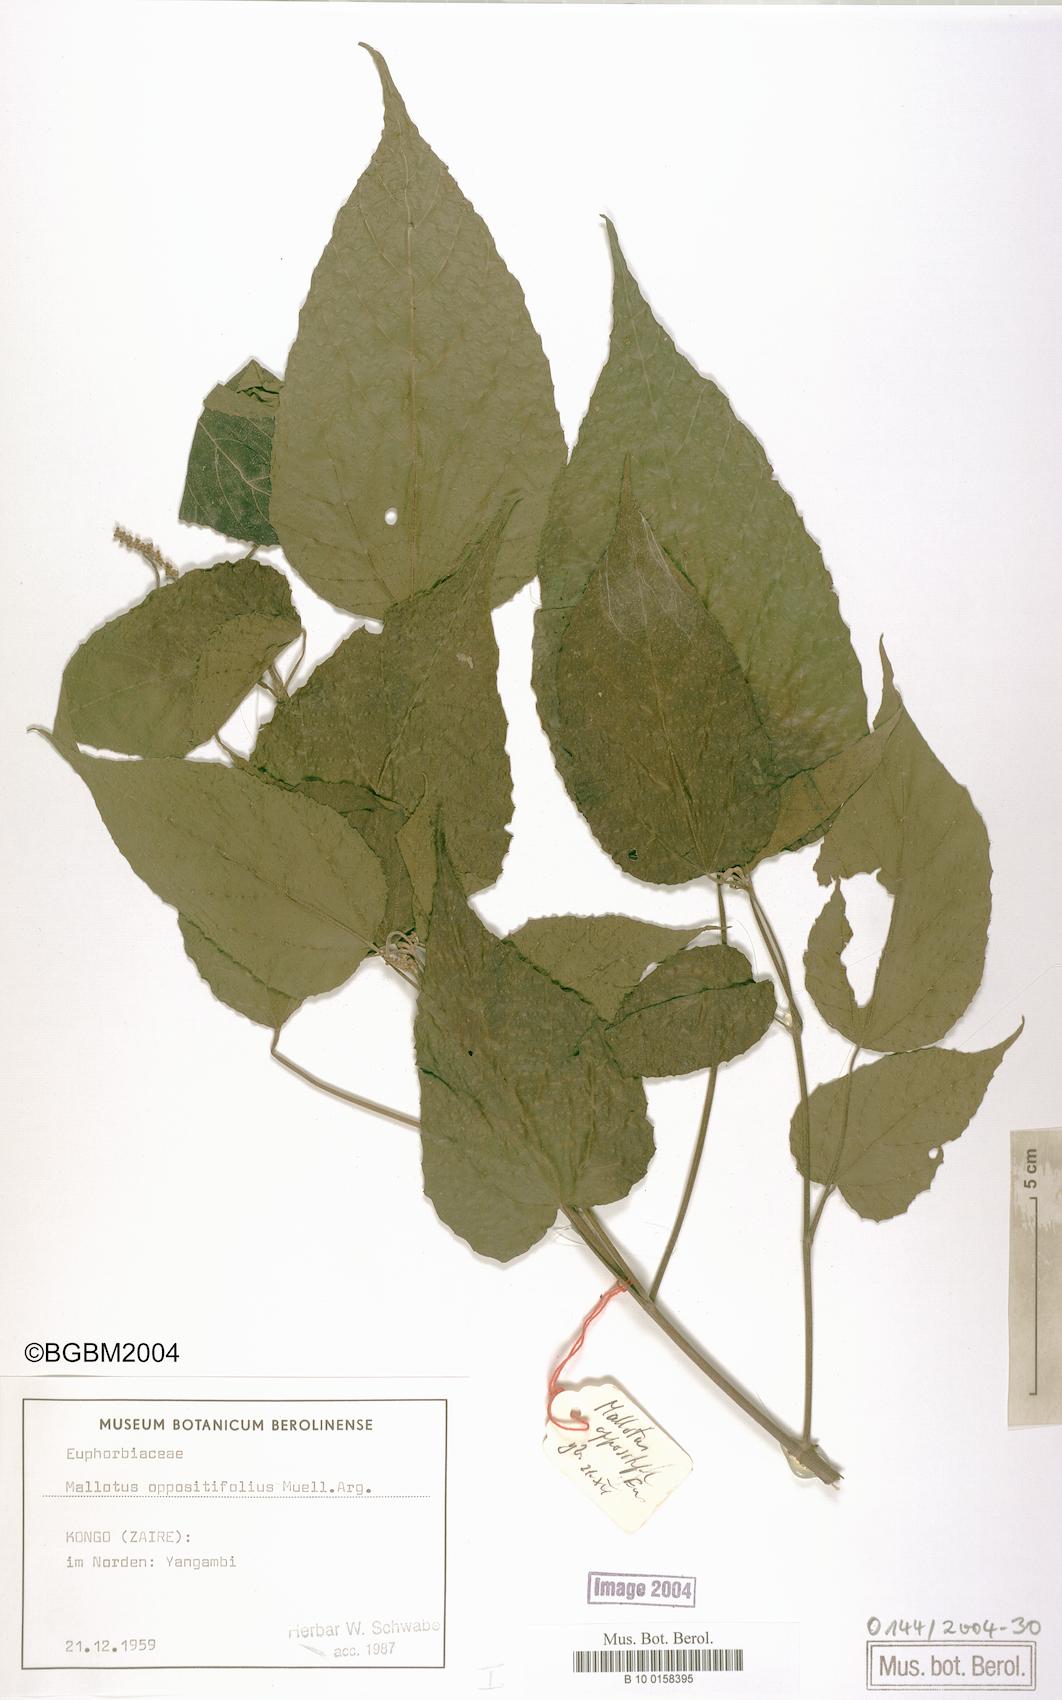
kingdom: Plantae
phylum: Tracheophyta
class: Magnoliopsida
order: Malpighiales
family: Euphorbiaceae
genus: Mallotus
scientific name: Mallotus oppositifolius
